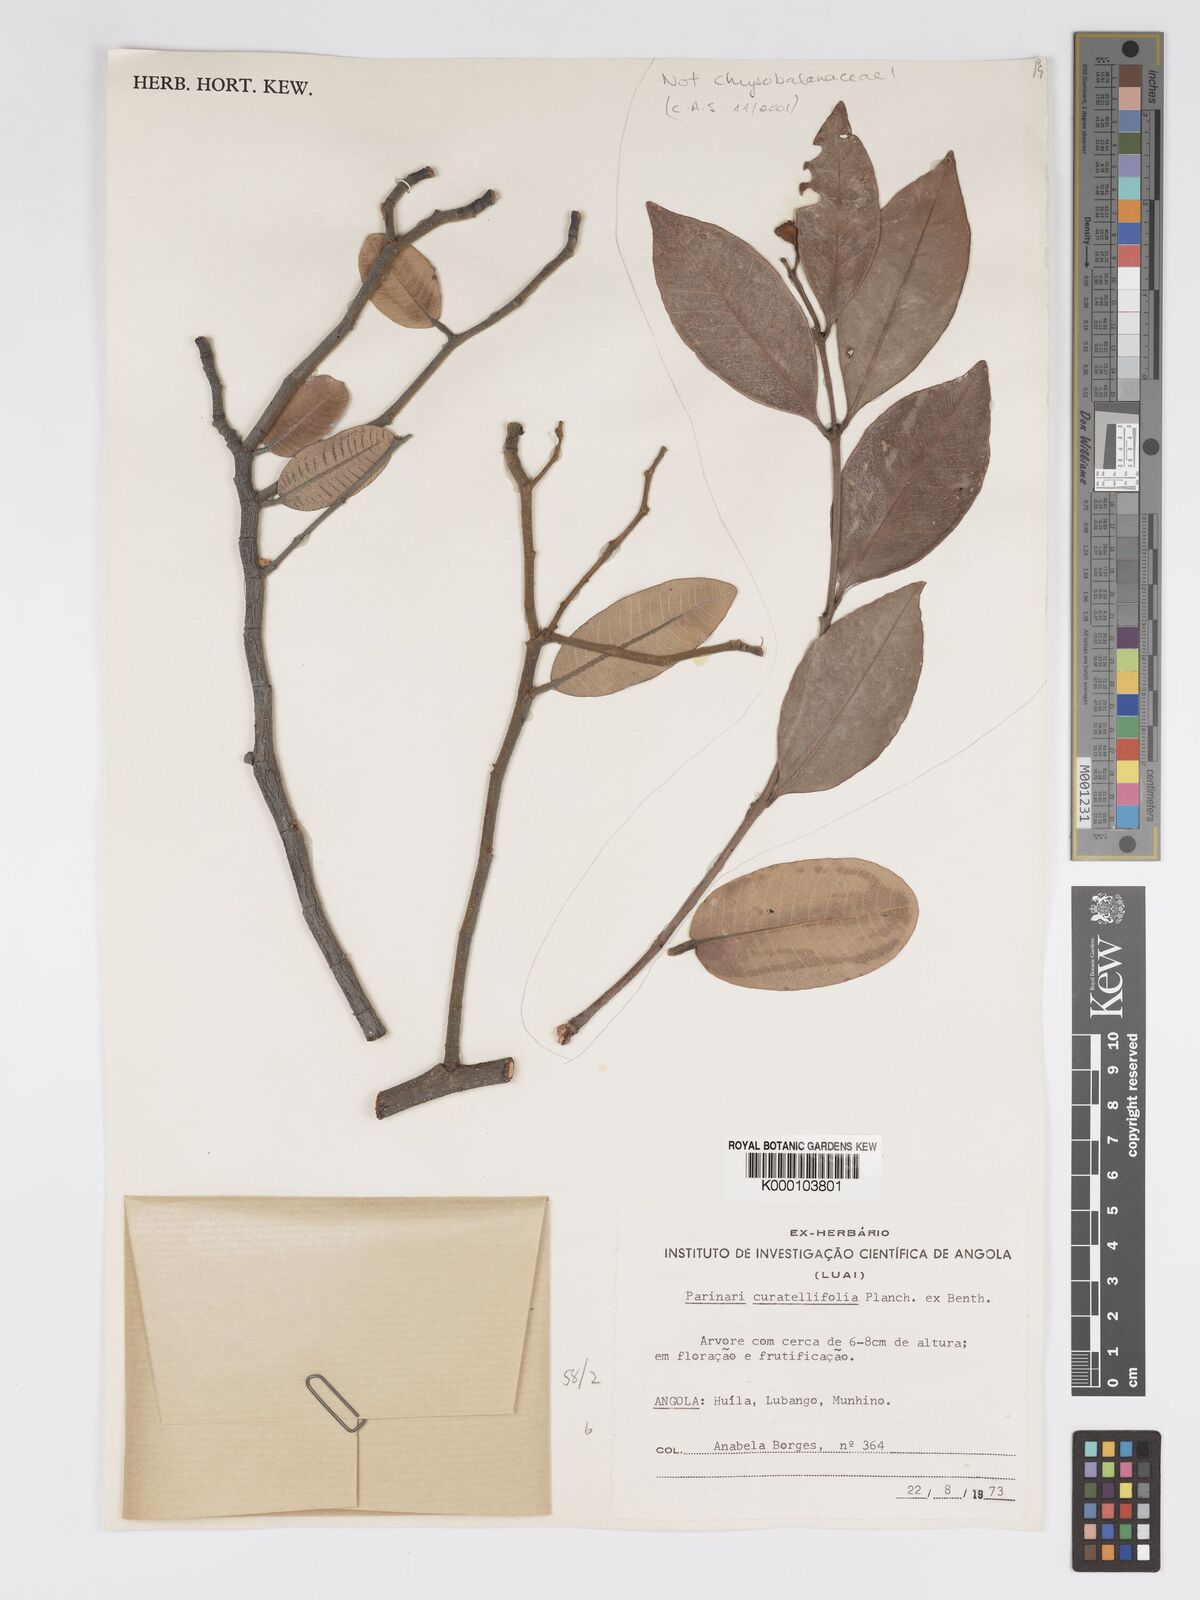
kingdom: Plantae
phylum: Tracheophyta
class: Magnoliopsida
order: Malpighiales
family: Chrysobalanaceae
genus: Parinari
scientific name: Parinari curatellifolia
